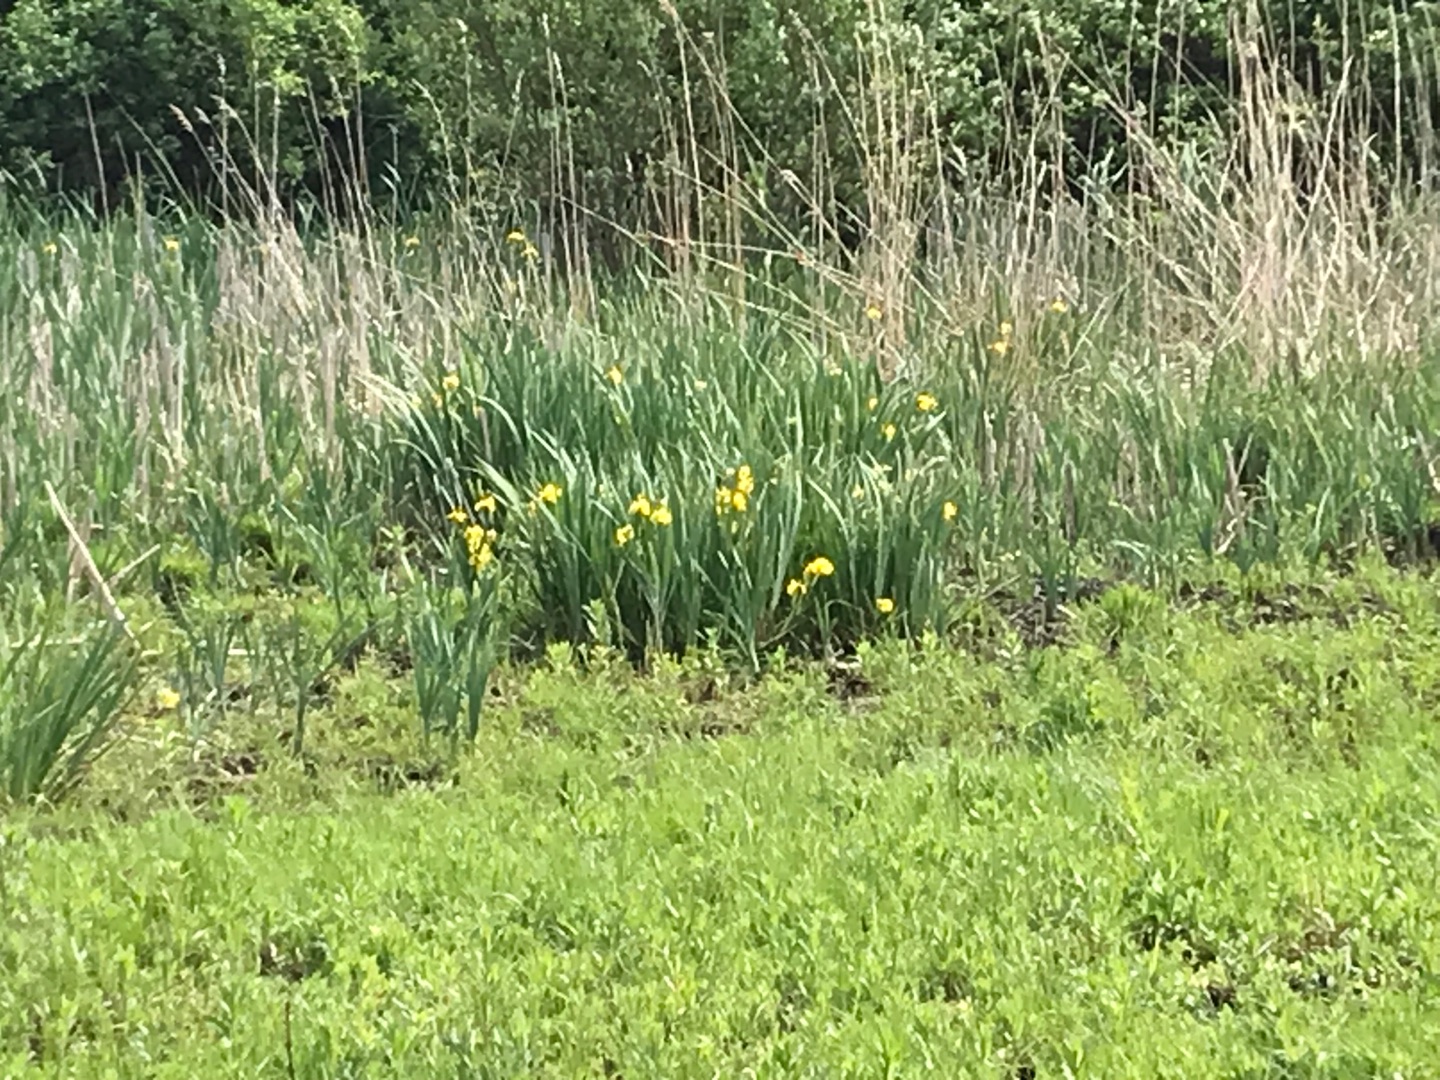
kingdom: Plantae
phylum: Tracheophyta
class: Liliopsida
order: Asparagales
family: Iridaceae
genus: Iris
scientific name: Iris pseudacorus
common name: Gul iris
